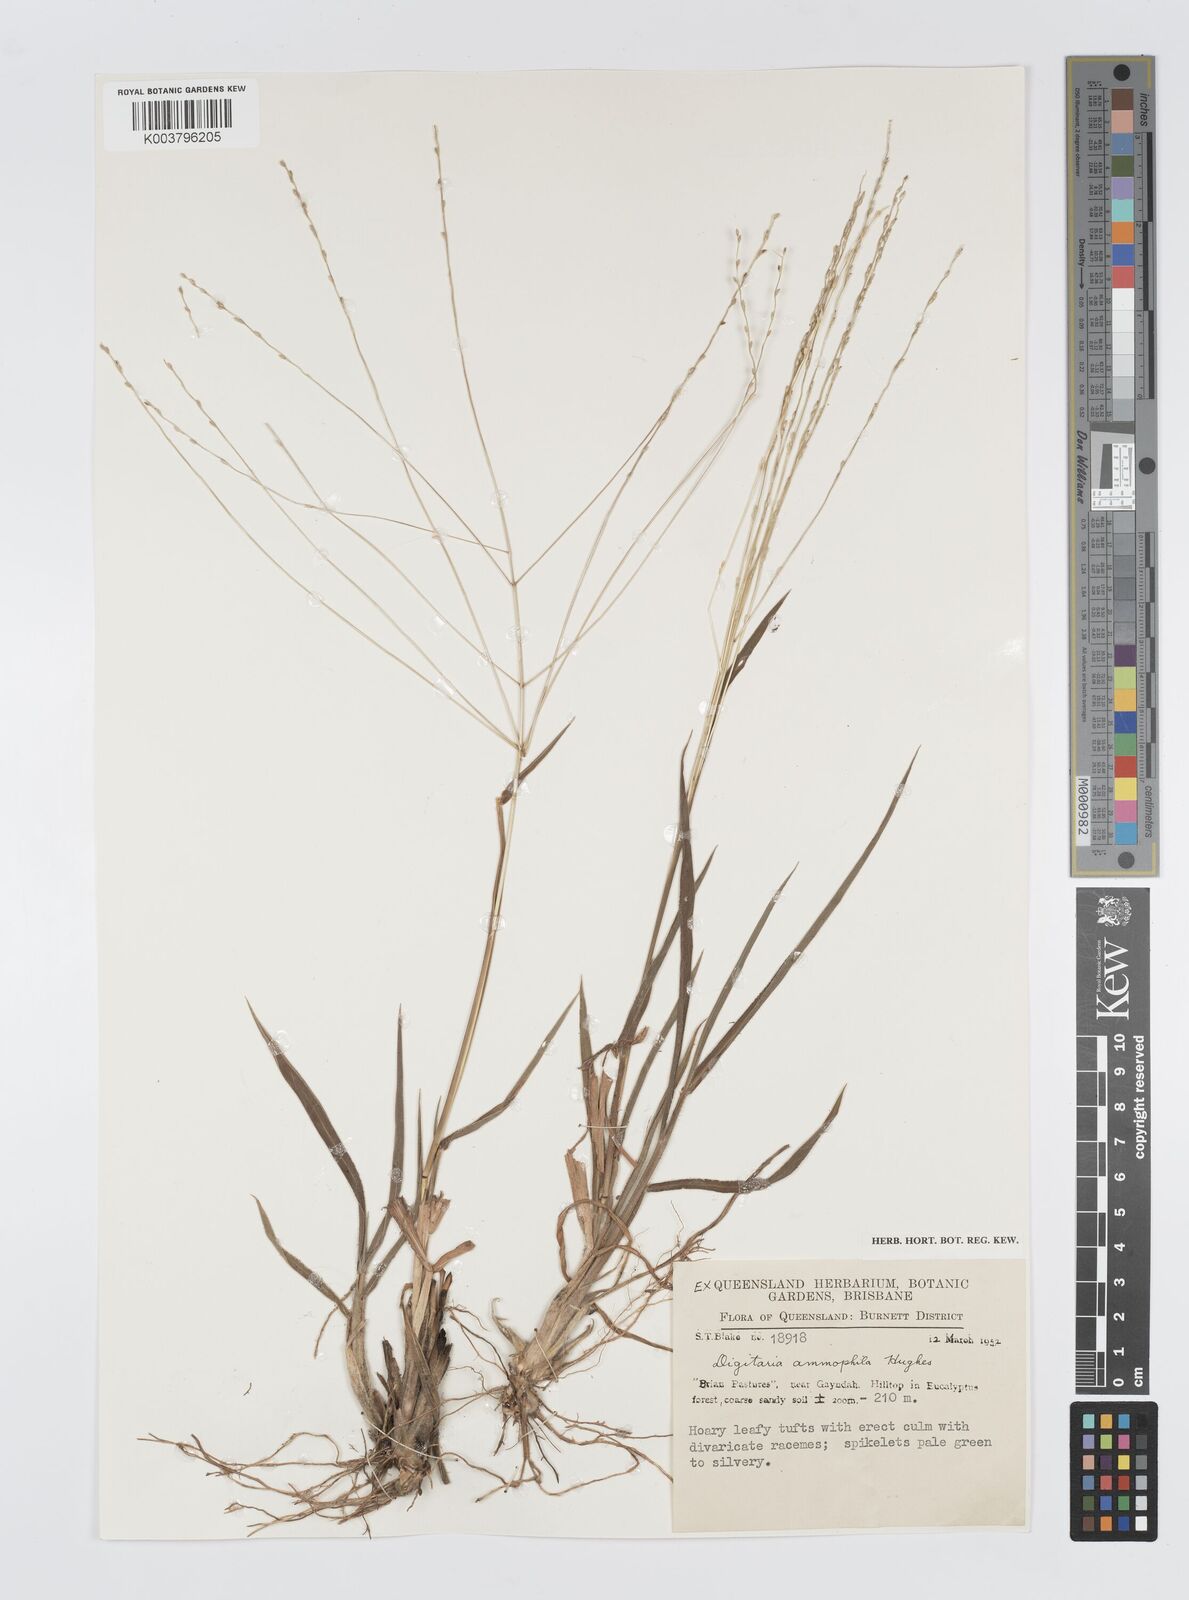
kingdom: Plantae
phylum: Tracheophyta
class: Liliopsida
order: Poales
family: Poaceae
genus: Digitaria
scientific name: Digitaria ammophila
